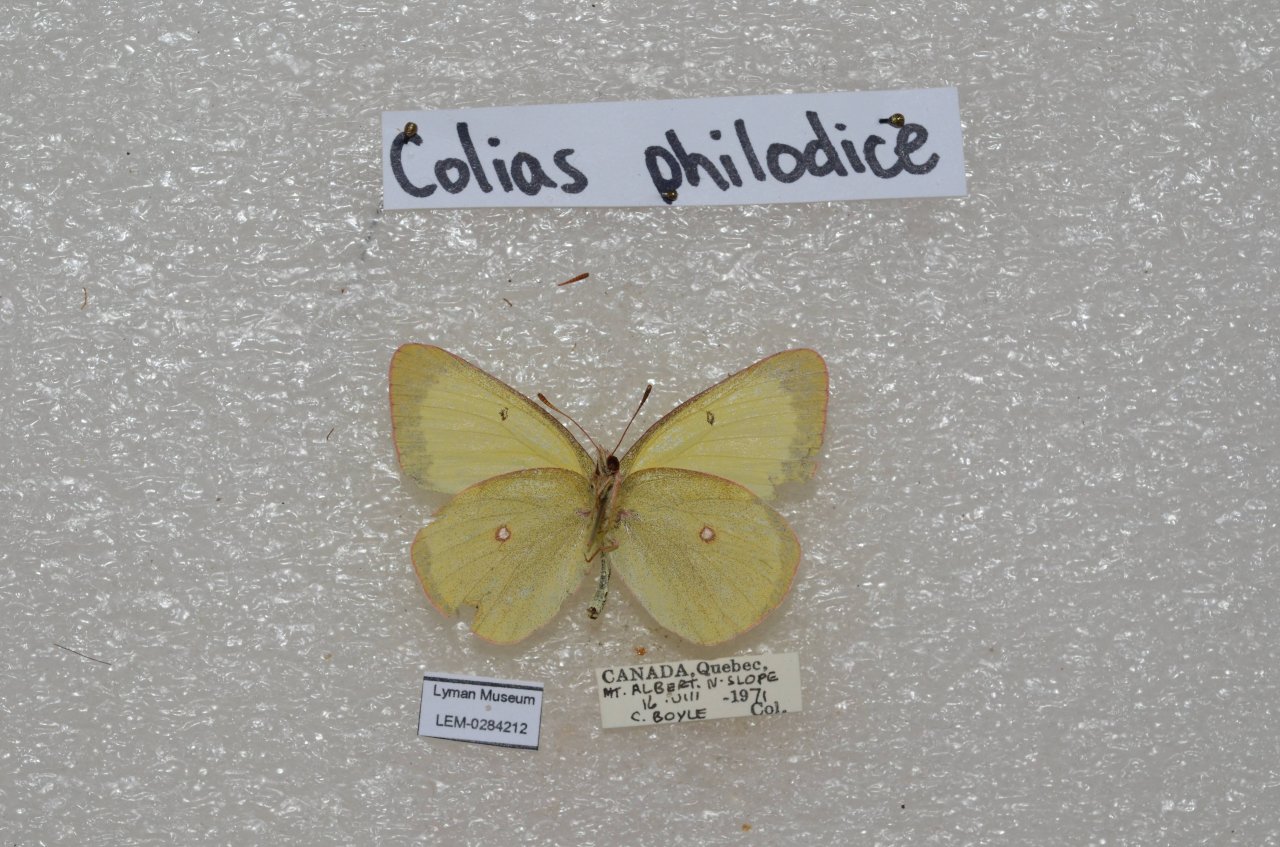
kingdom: Animalia
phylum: Arthropoda
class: Insecta
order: Lepidoptera
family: Pieridae
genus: Colias
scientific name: Colias interior
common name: Pink-edged Sulphur
